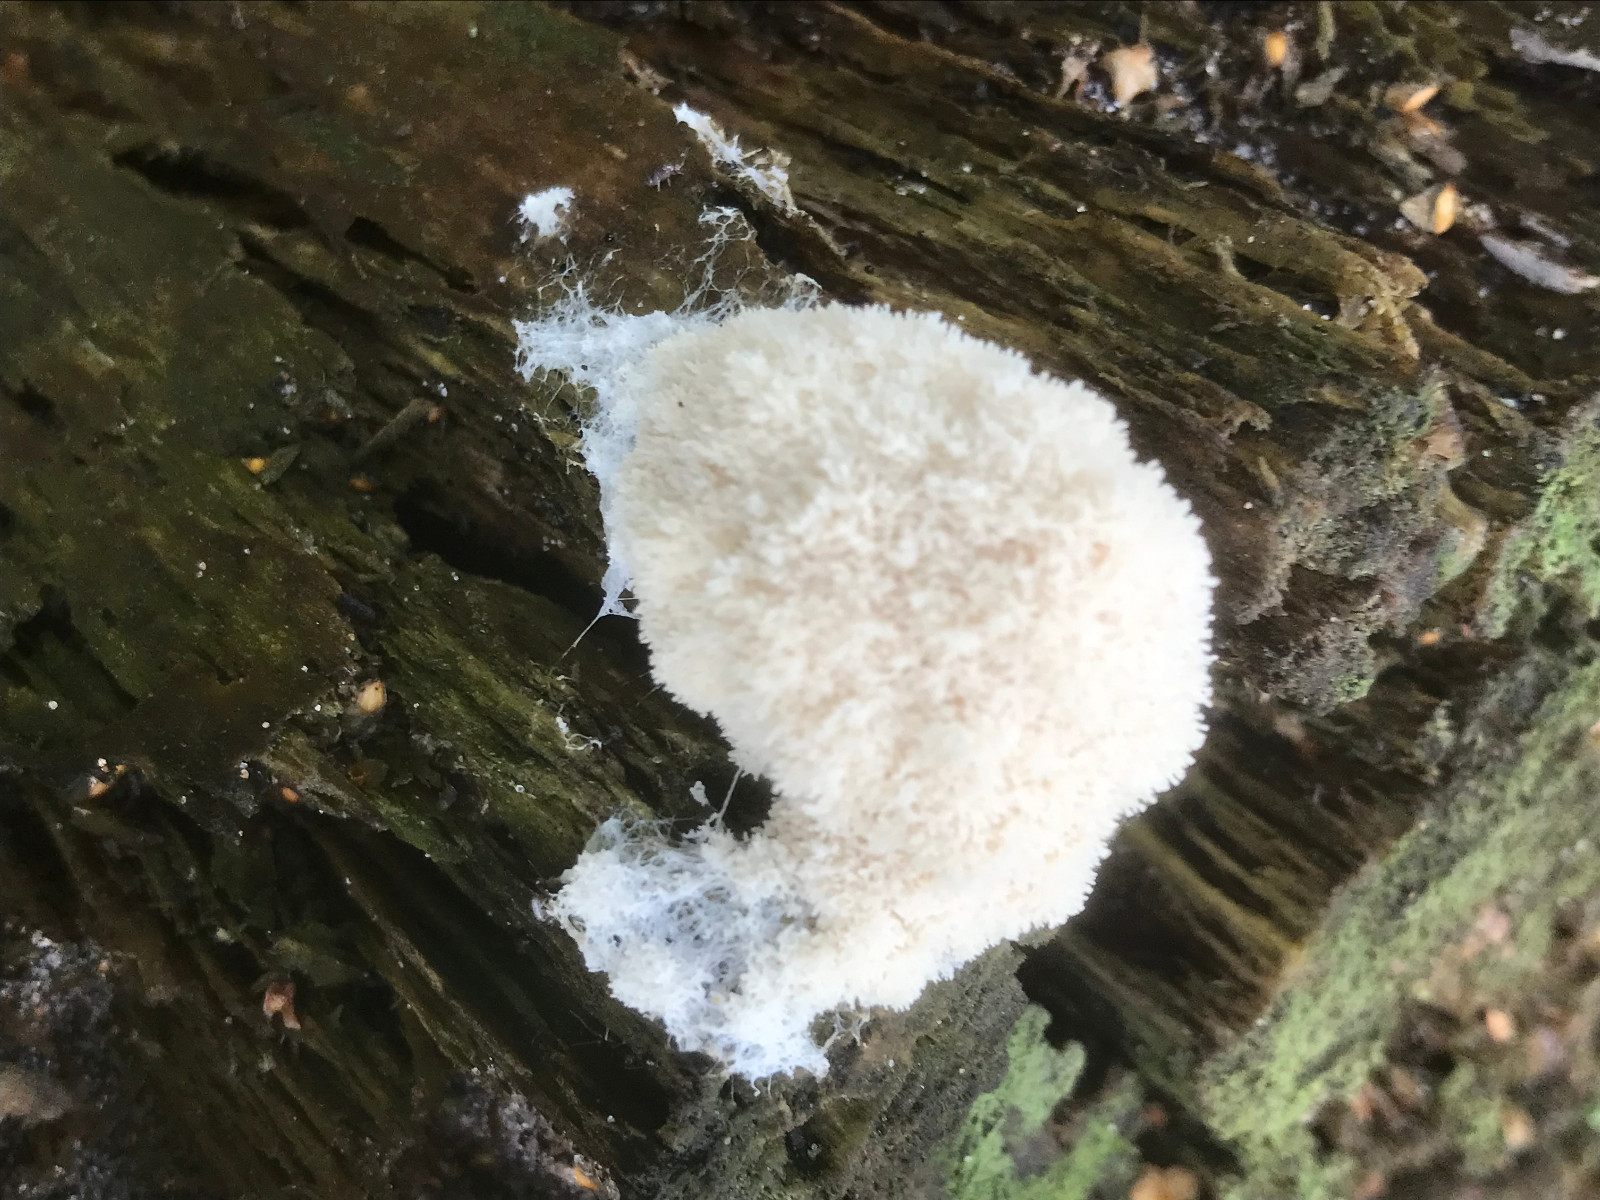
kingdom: Protozoa
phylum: Mycetozoa
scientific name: Mycetozoa
